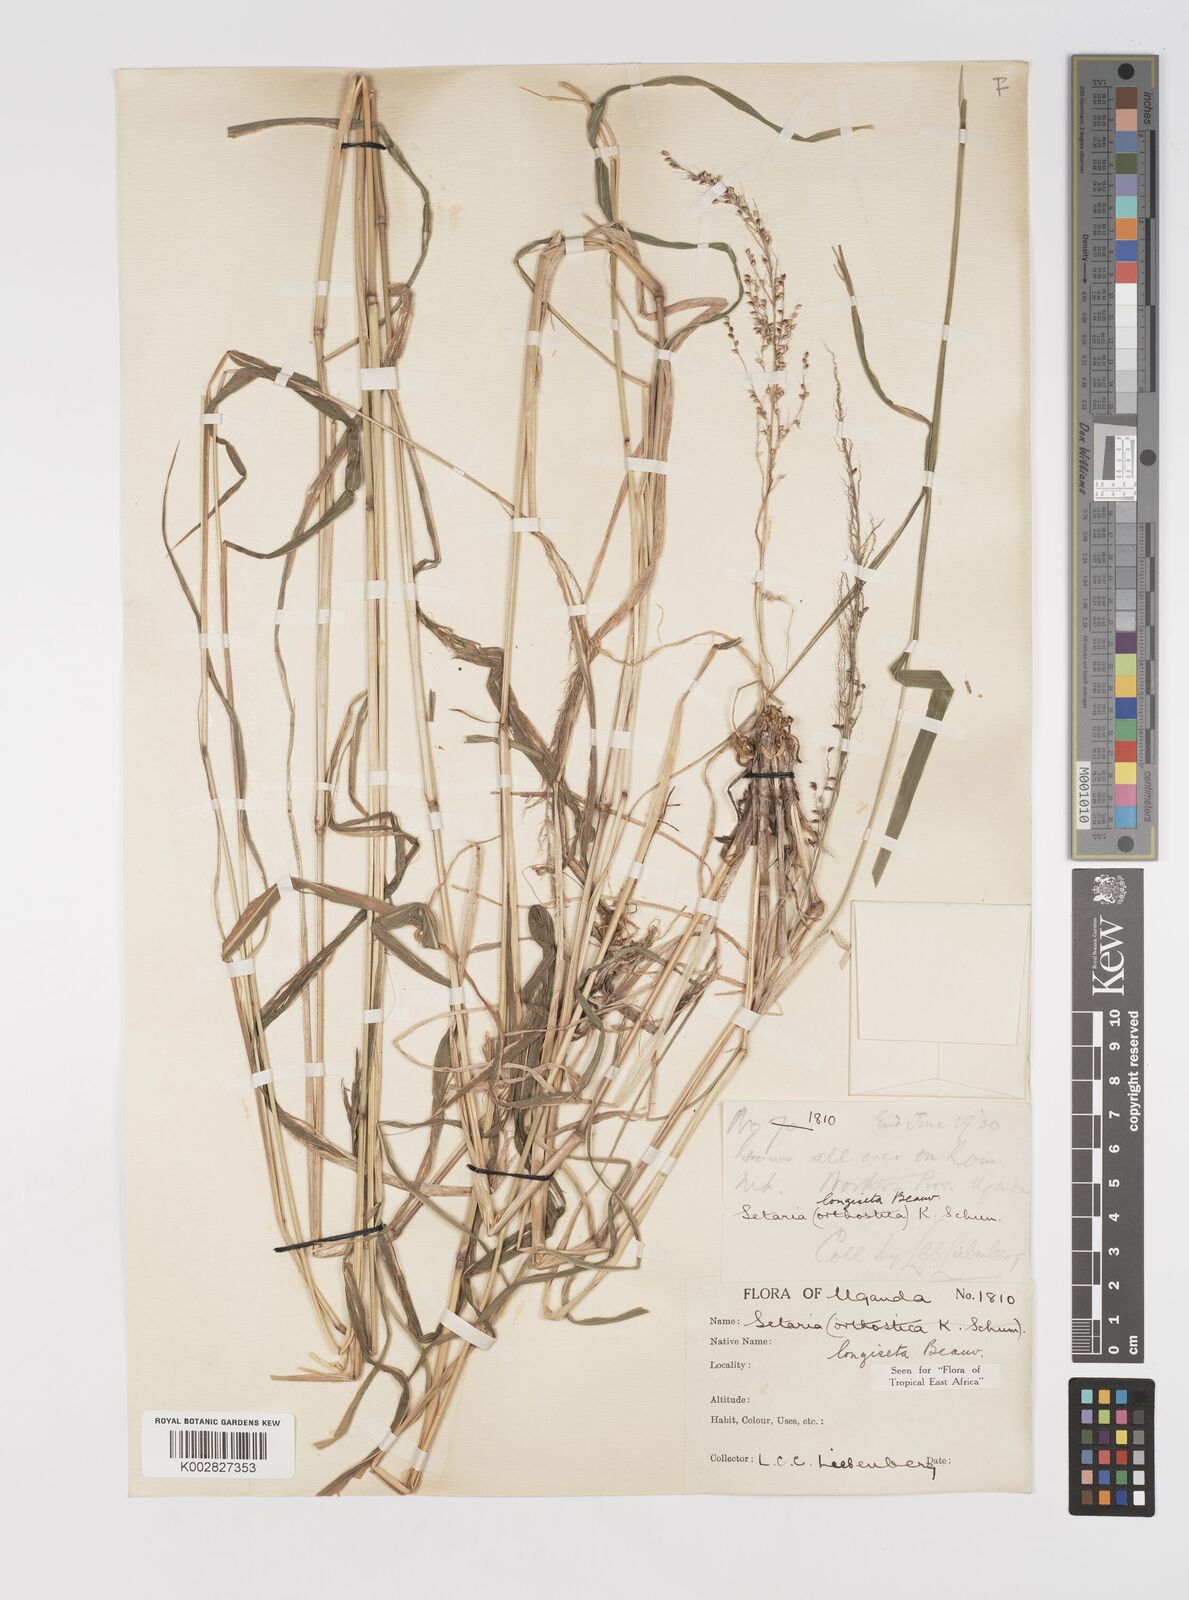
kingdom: Plantae
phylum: Tracheophyta
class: Liliopsida
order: Poales
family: Poaceae
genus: Setaria
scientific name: Setaria longiseta
